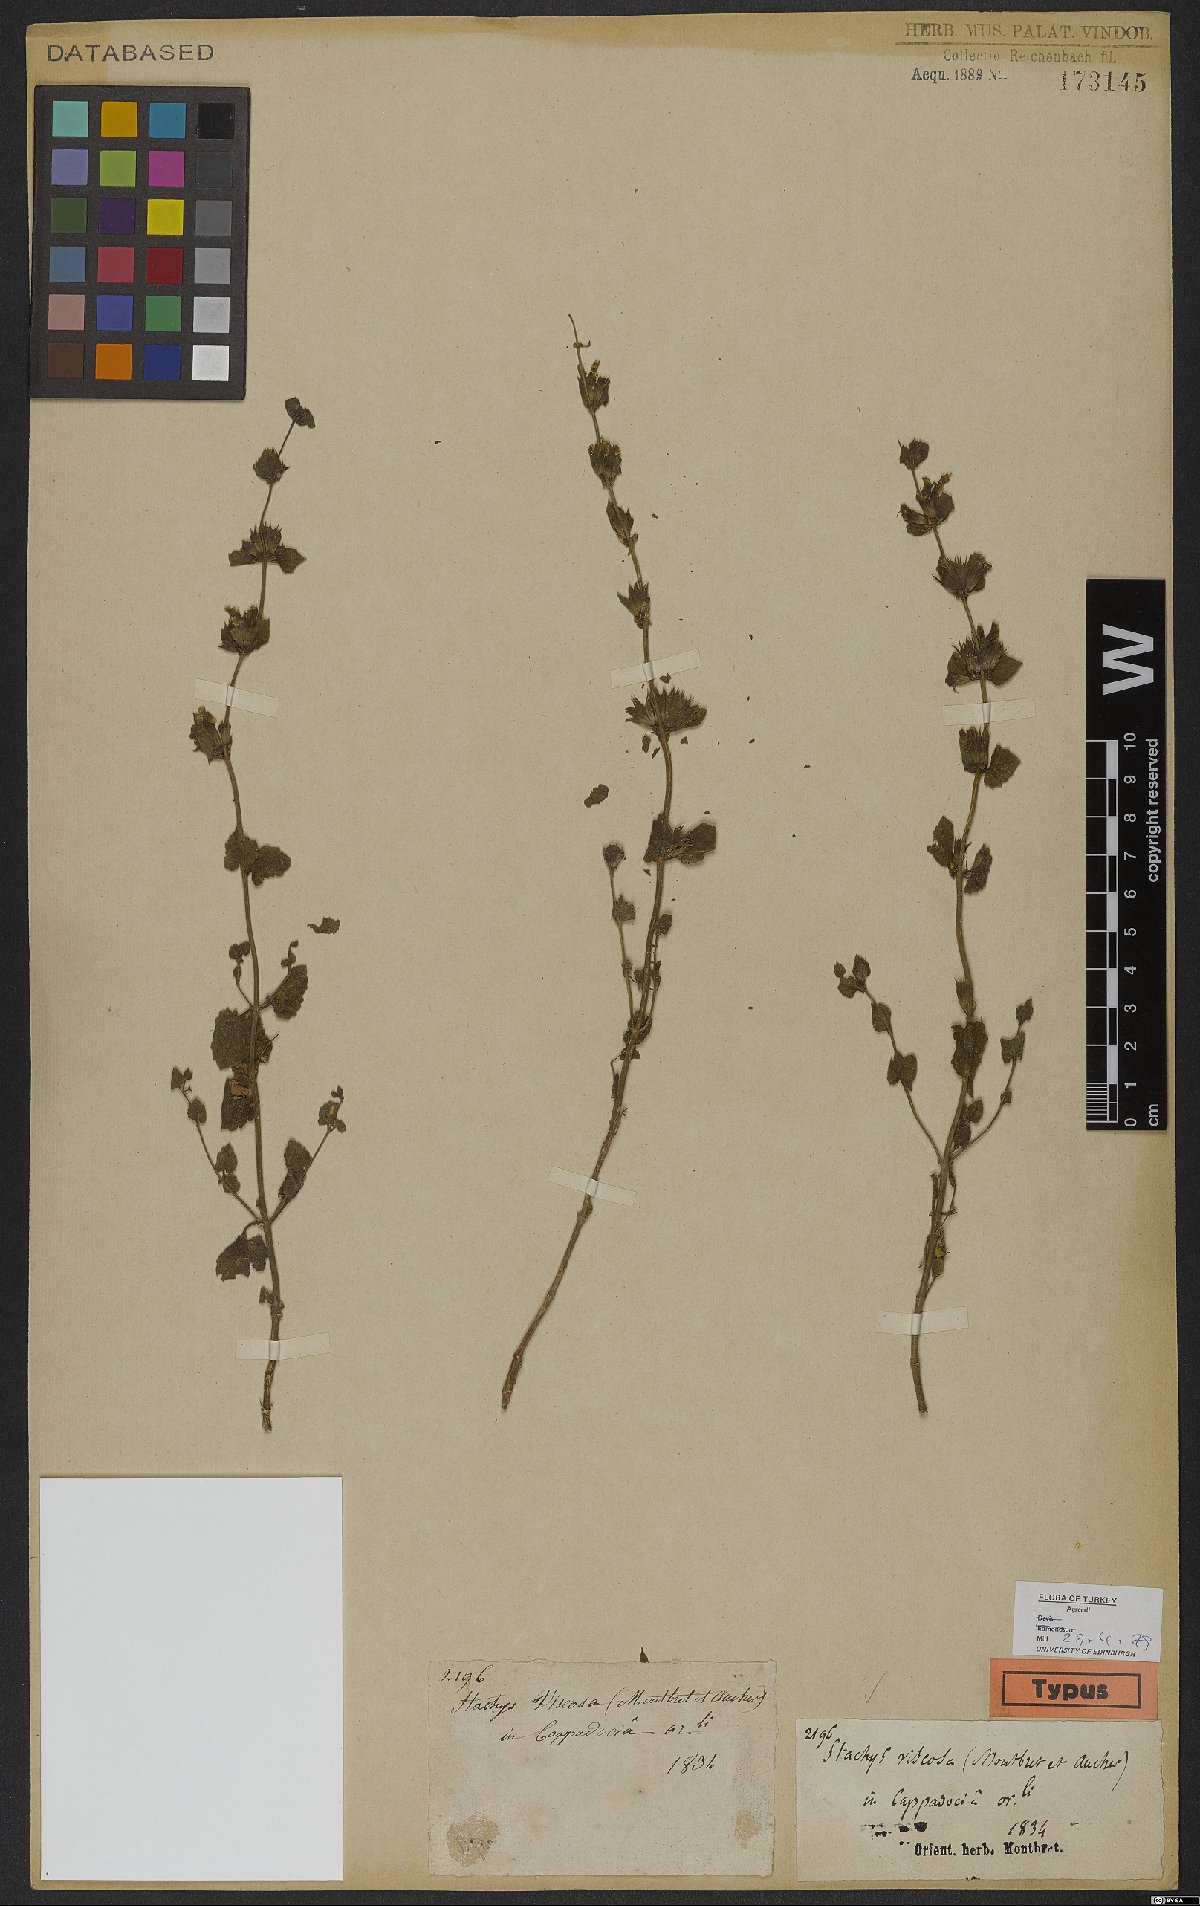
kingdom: Plantae
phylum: Tracheophyta
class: Magnoliopsida
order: Lamiales
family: Lamiaceae
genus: Stachys
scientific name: Stachys viscosa
